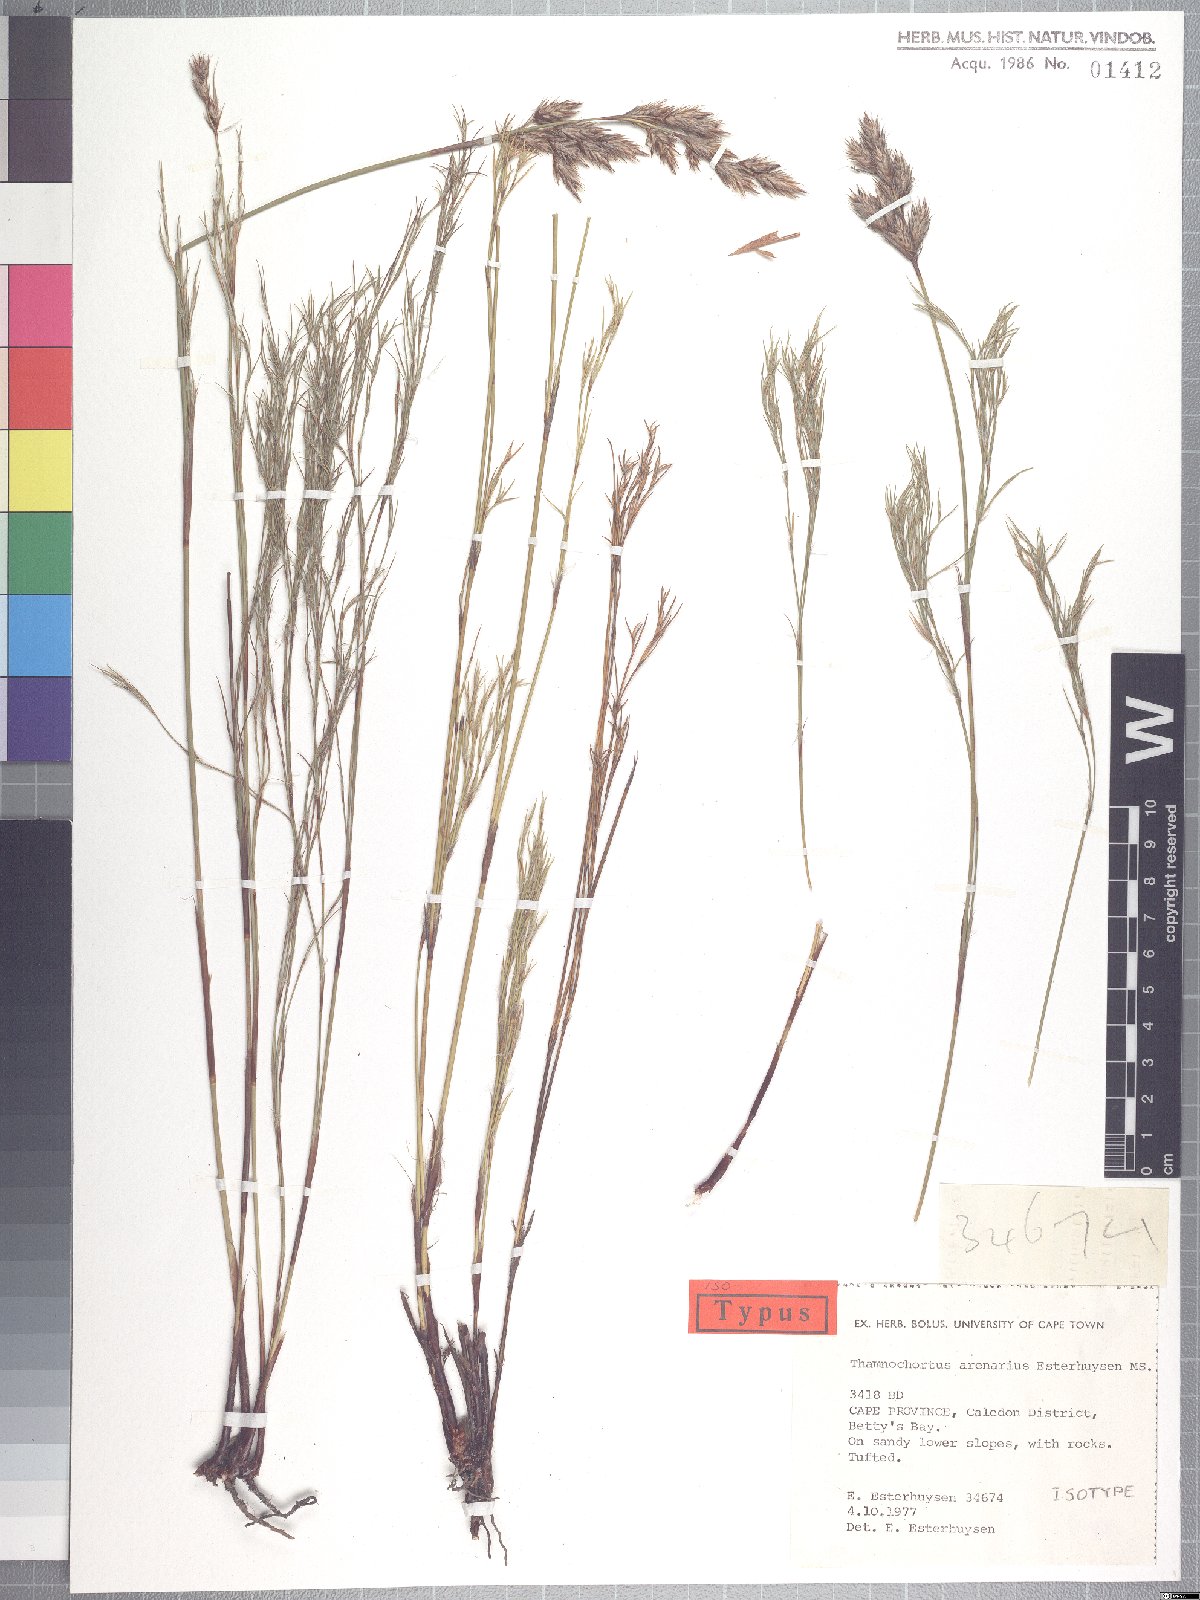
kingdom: Plantae
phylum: Tracheophyta
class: Liliopsida
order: Poales
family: Restionaceae
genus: Thamnochortus
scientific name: Thamnochortus arenarius
